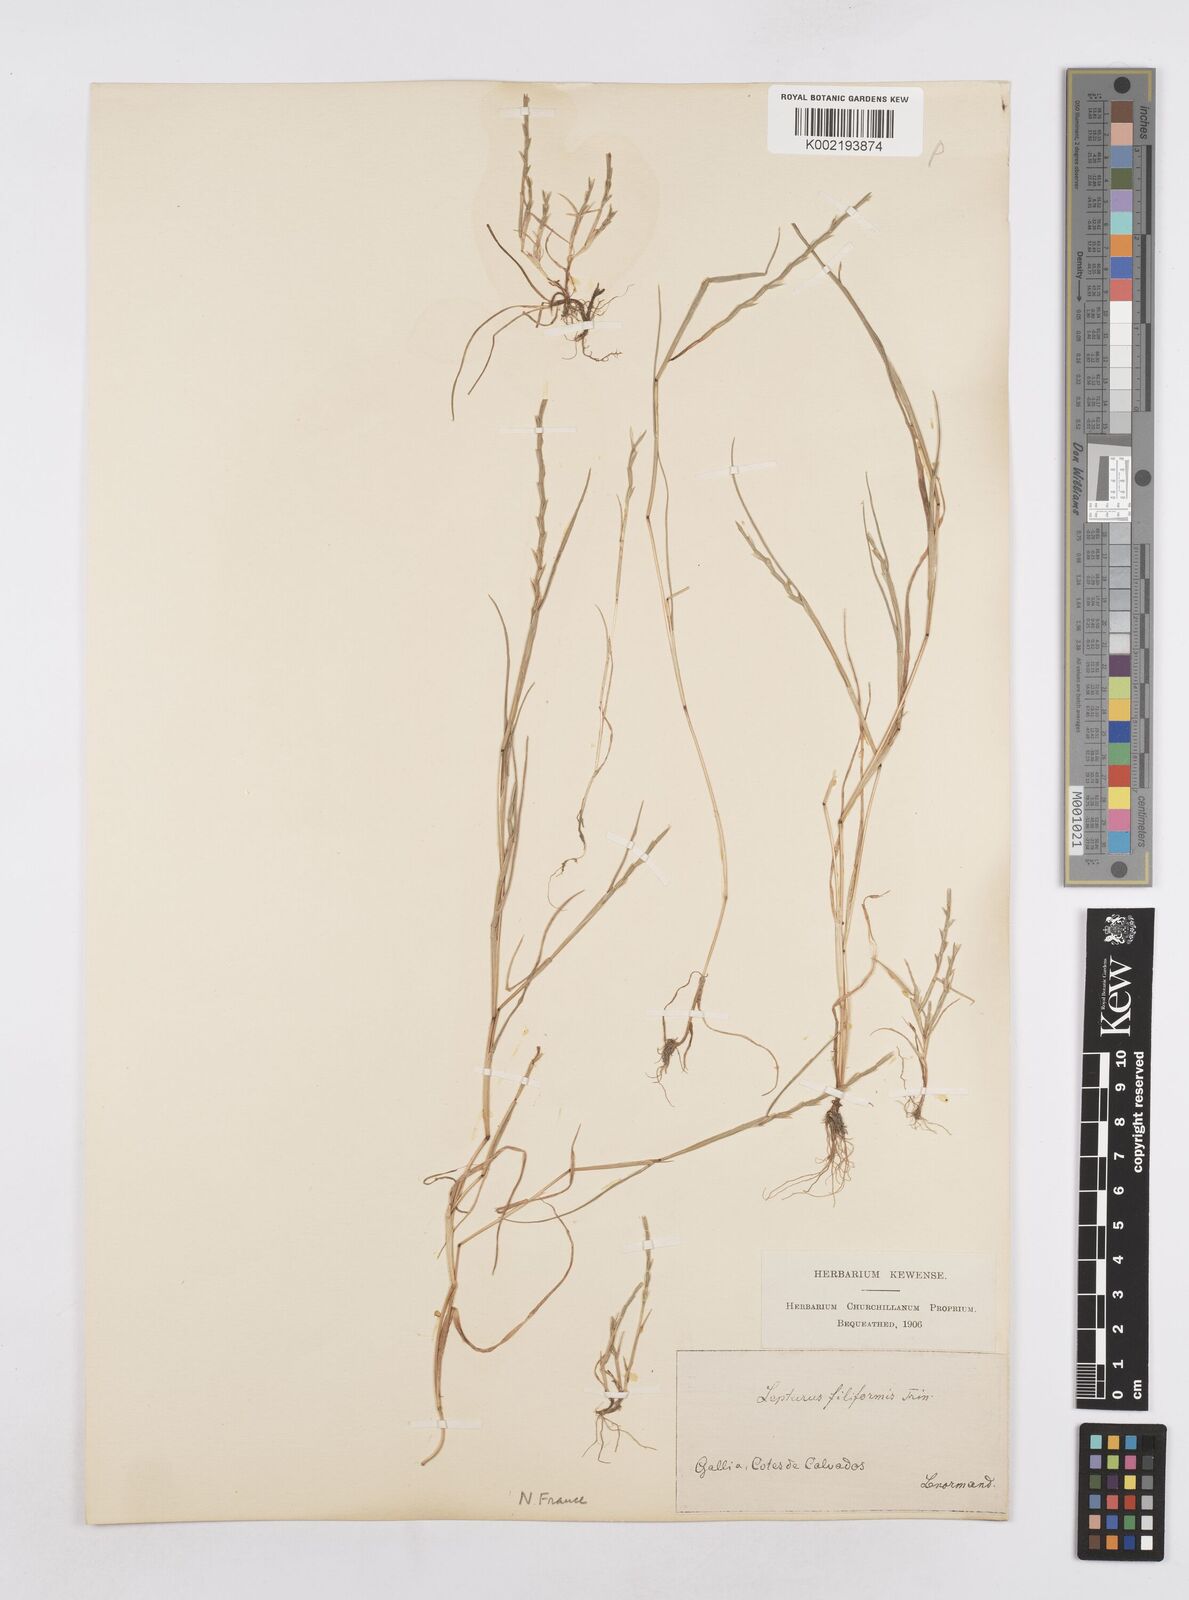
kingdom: Plantae
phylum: Tracheophyta
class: Liliopsida
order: Poales
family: Poaceae
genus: Parapholis
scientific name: Parapholis strigosa
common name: Hard-grass
